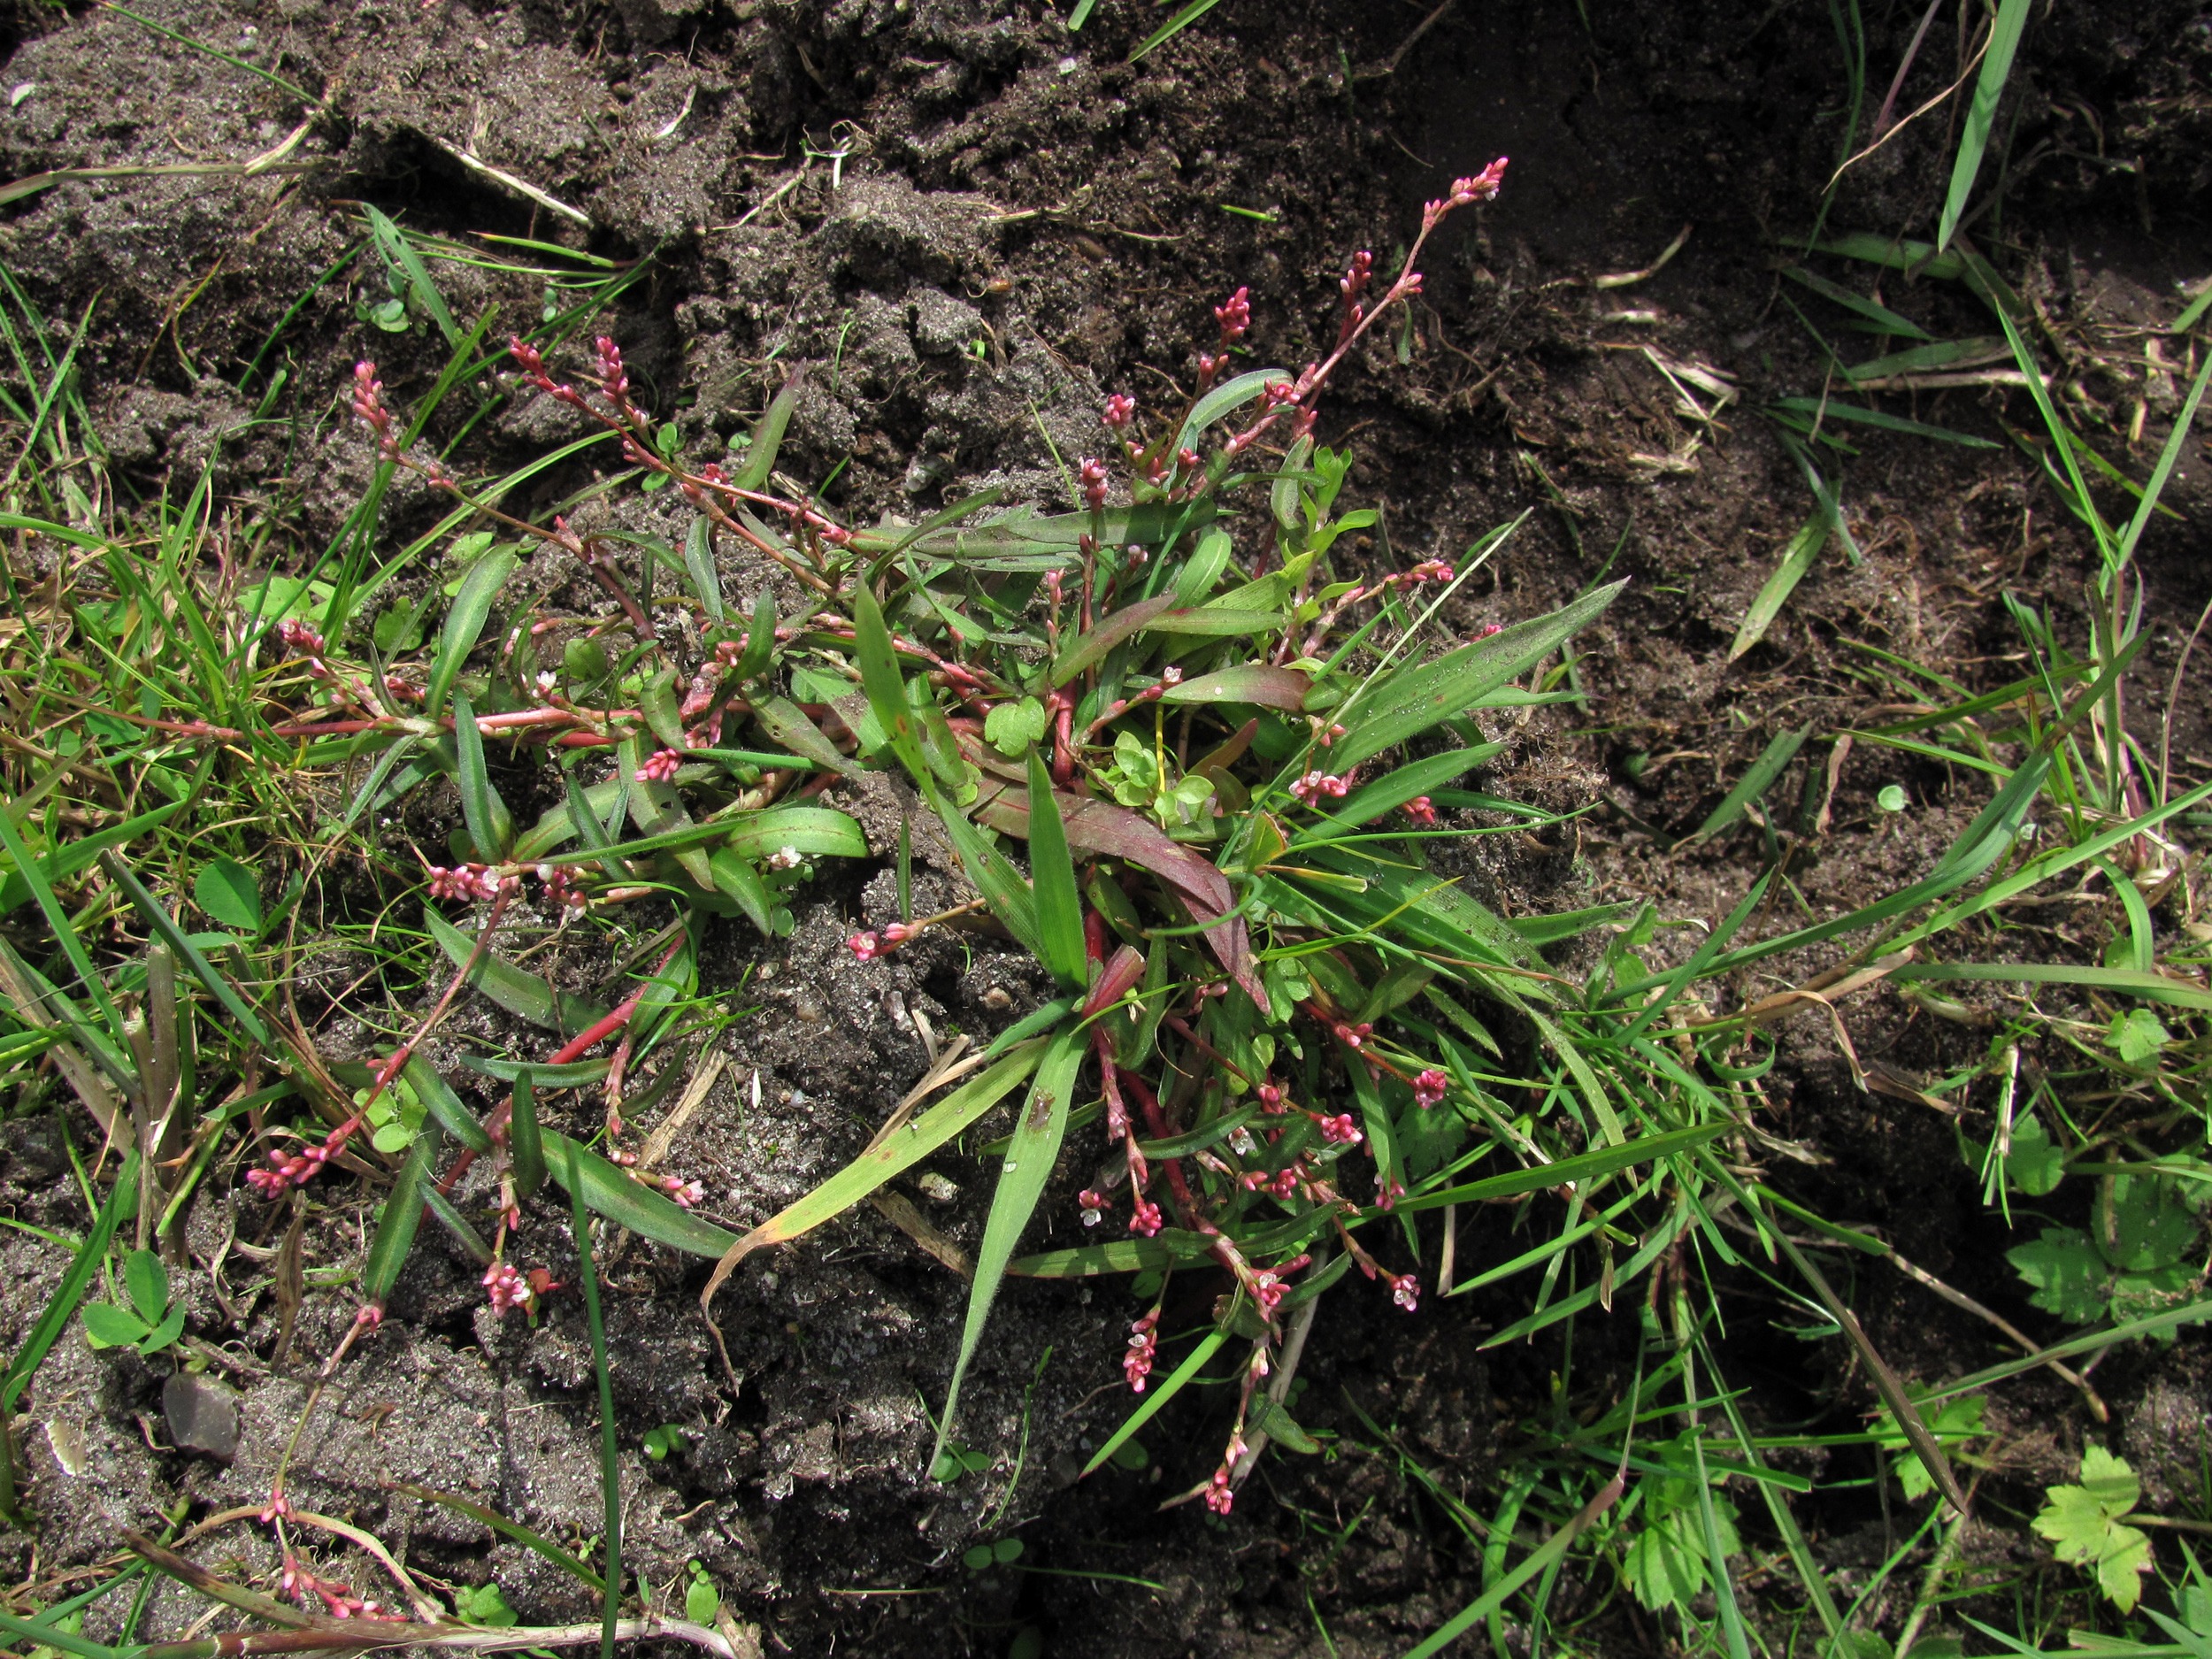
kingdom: Plantae
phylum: Tracheophyta
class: Magnoliopsida
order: Caryophyllales
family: Polygonaceae
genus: Persicaria
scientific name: Persicaria minor
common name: Liden pileurt
